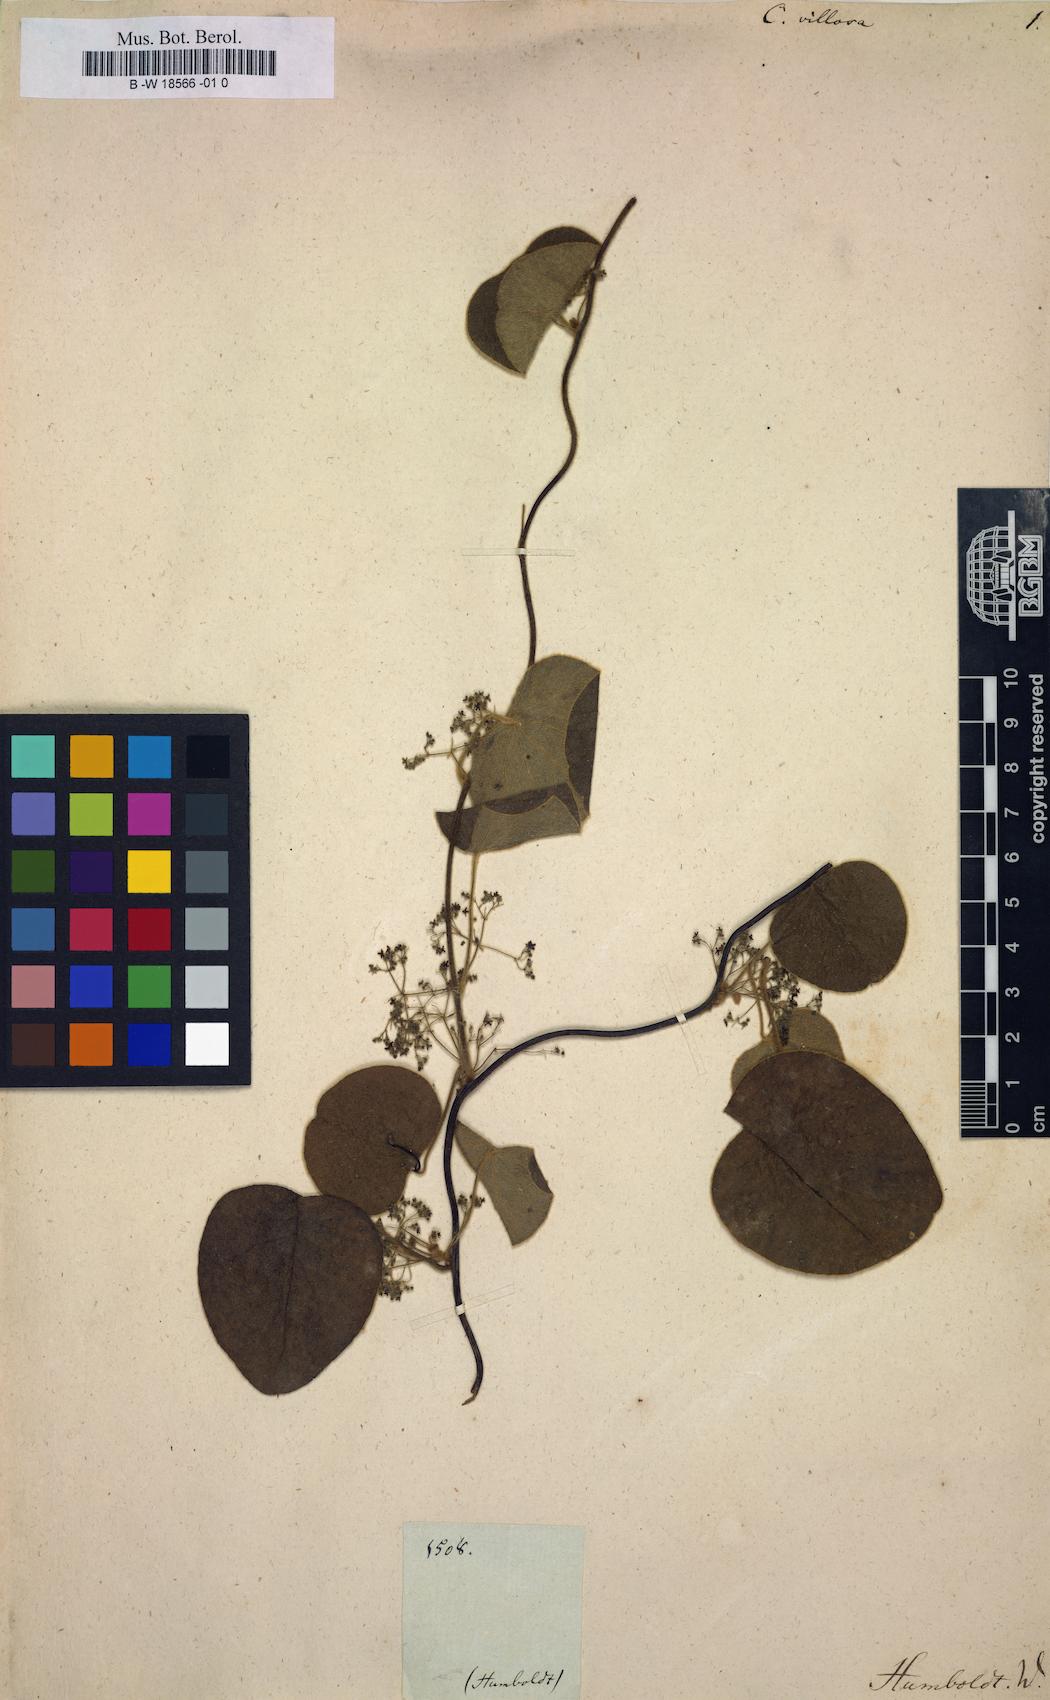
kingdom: Plantae
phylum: Tracheophyta
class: Magnoliopsida
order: Ranunculales
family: Menispermaceae
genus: Cissampelos
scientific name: Cissampelos
